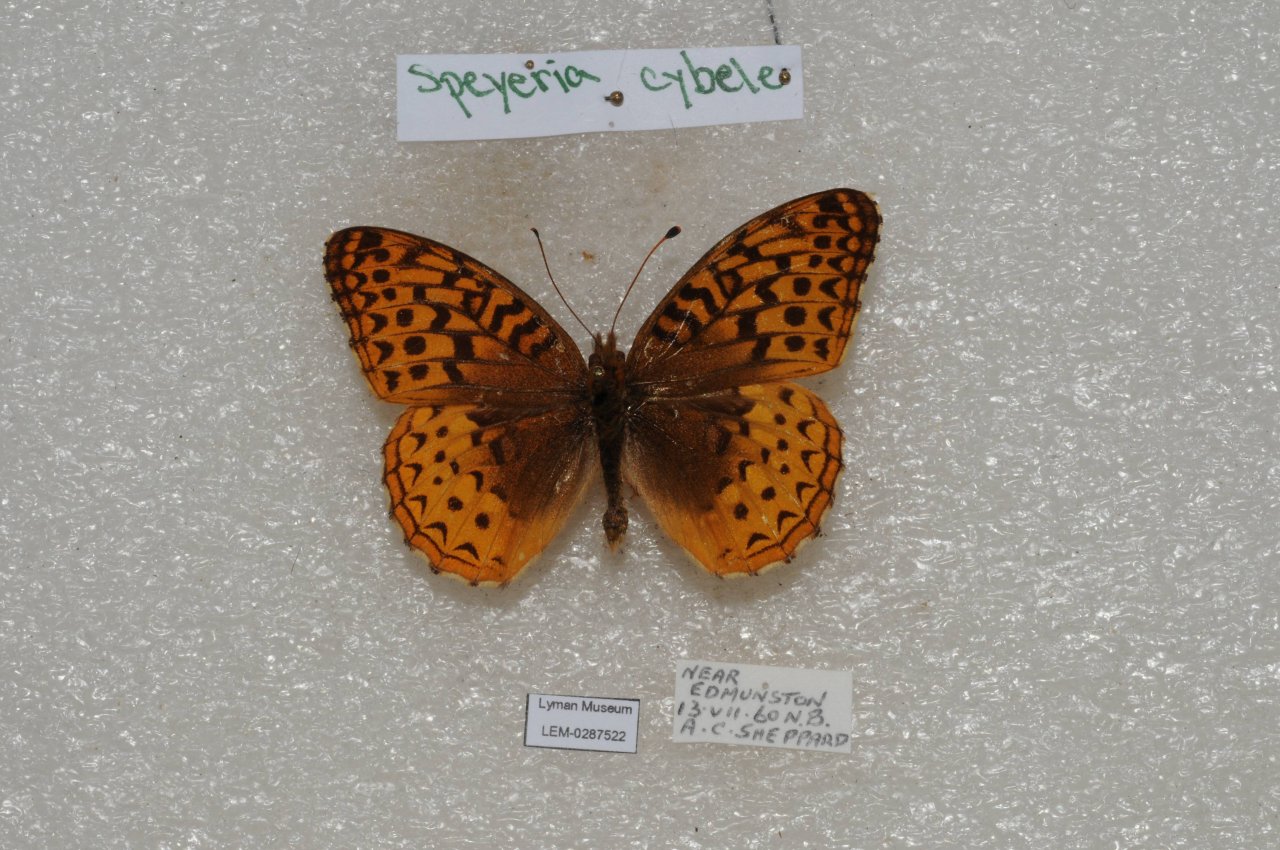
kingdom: Animalia
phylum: Arthropoda
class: Insecta
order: Lepidoptera
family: Nymphalidae
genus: Speyeria
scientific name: Speyeria cybele
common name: Great Spangled Fritillary
